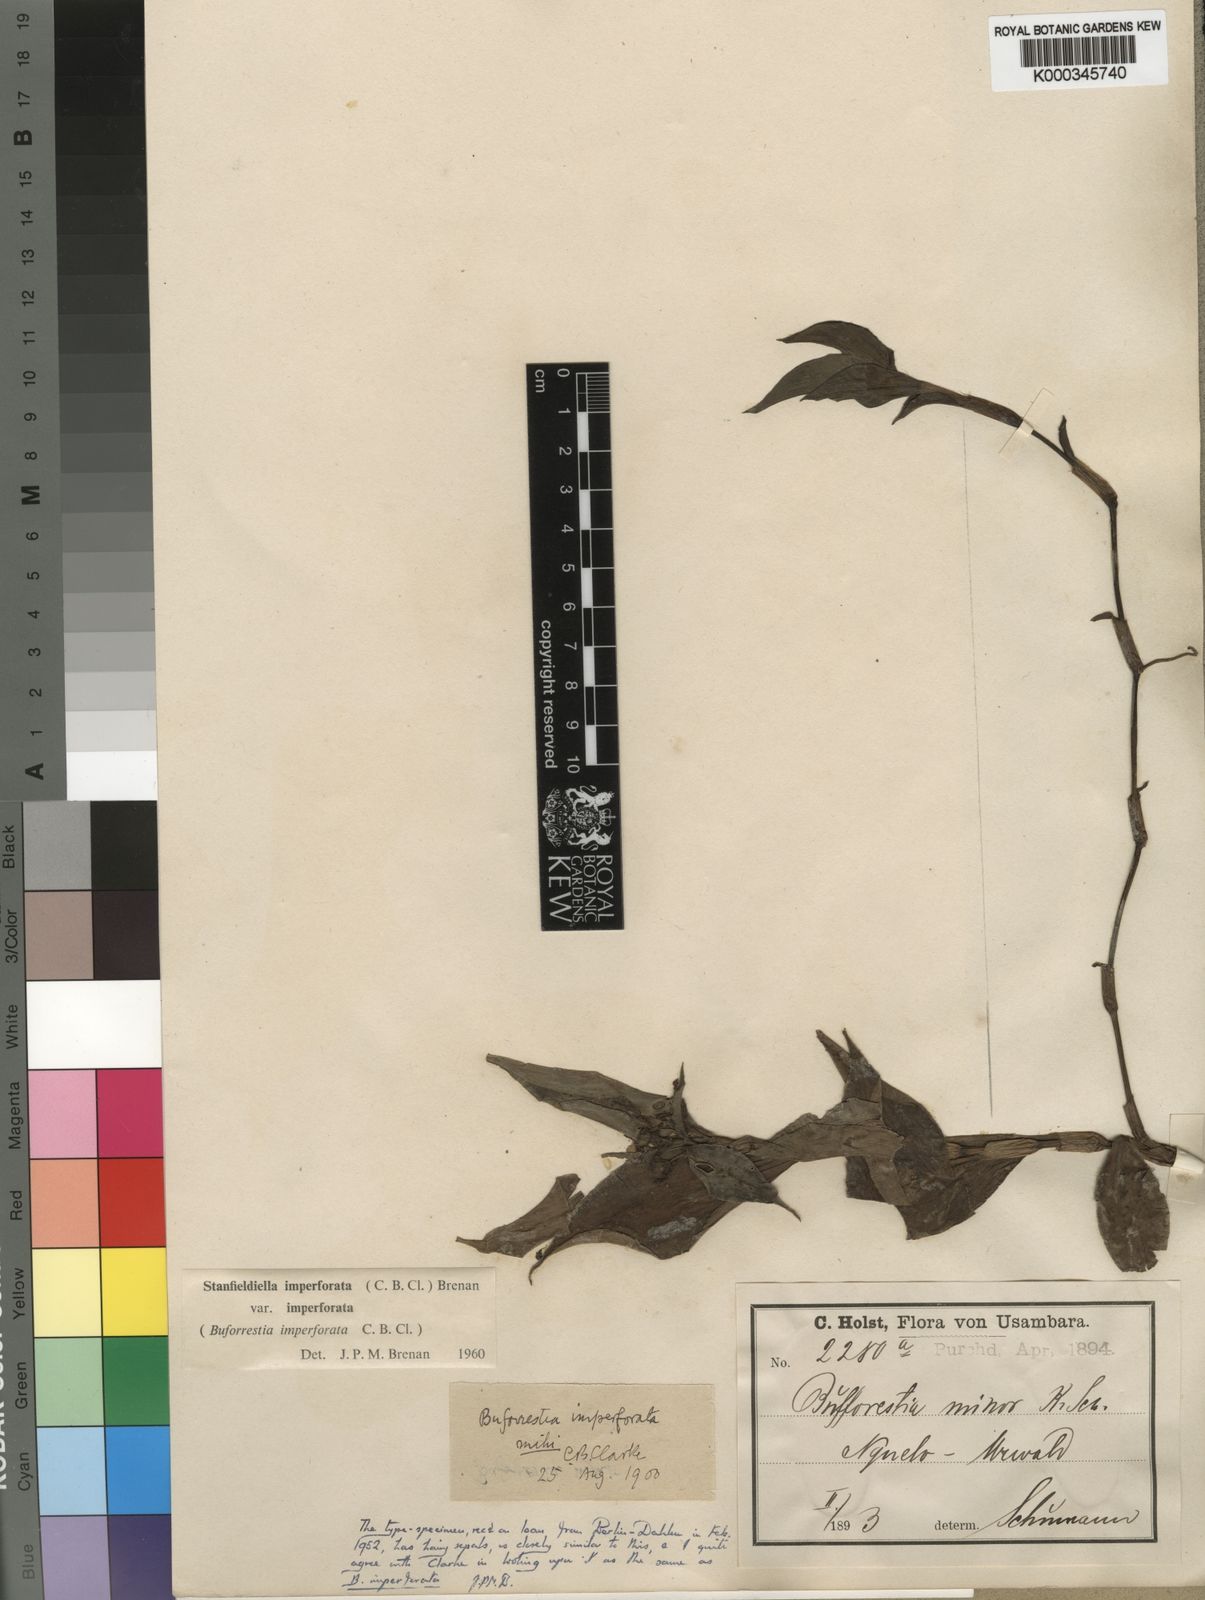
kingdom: Plantae
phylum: Tracheophyta
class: Liliopsida
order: Commelinales
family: Commelinaceae
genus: Stanfieldiella
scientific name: Stanfieldiella imperforata
